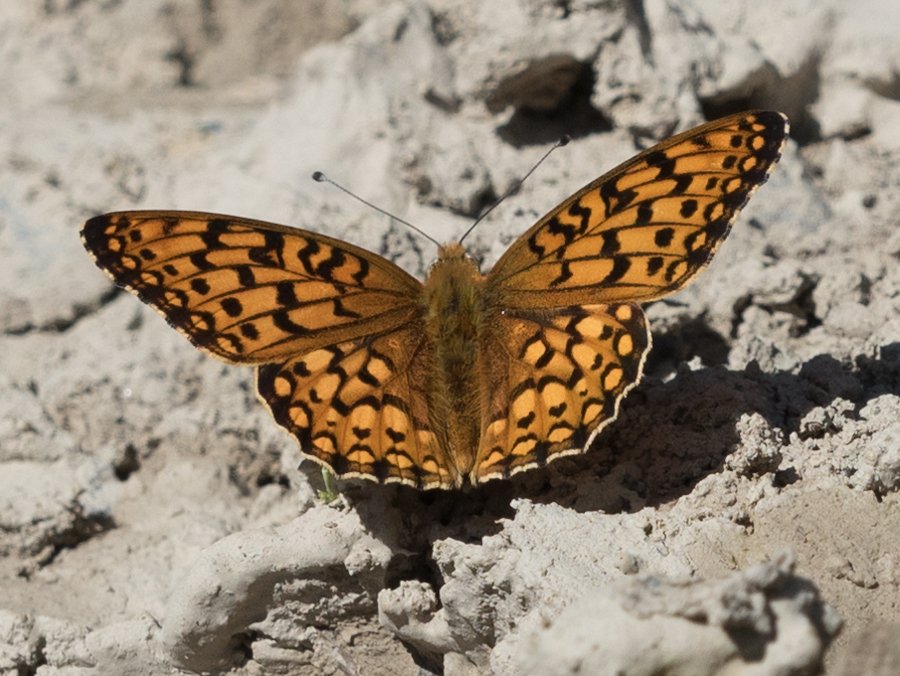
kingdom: Animalia
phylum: Arthropoda
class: Insecta
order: Lepidoptera
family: Nymphalidae
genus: Speyeria
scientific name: Speyeria callippe
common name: Callippe Fritillary
